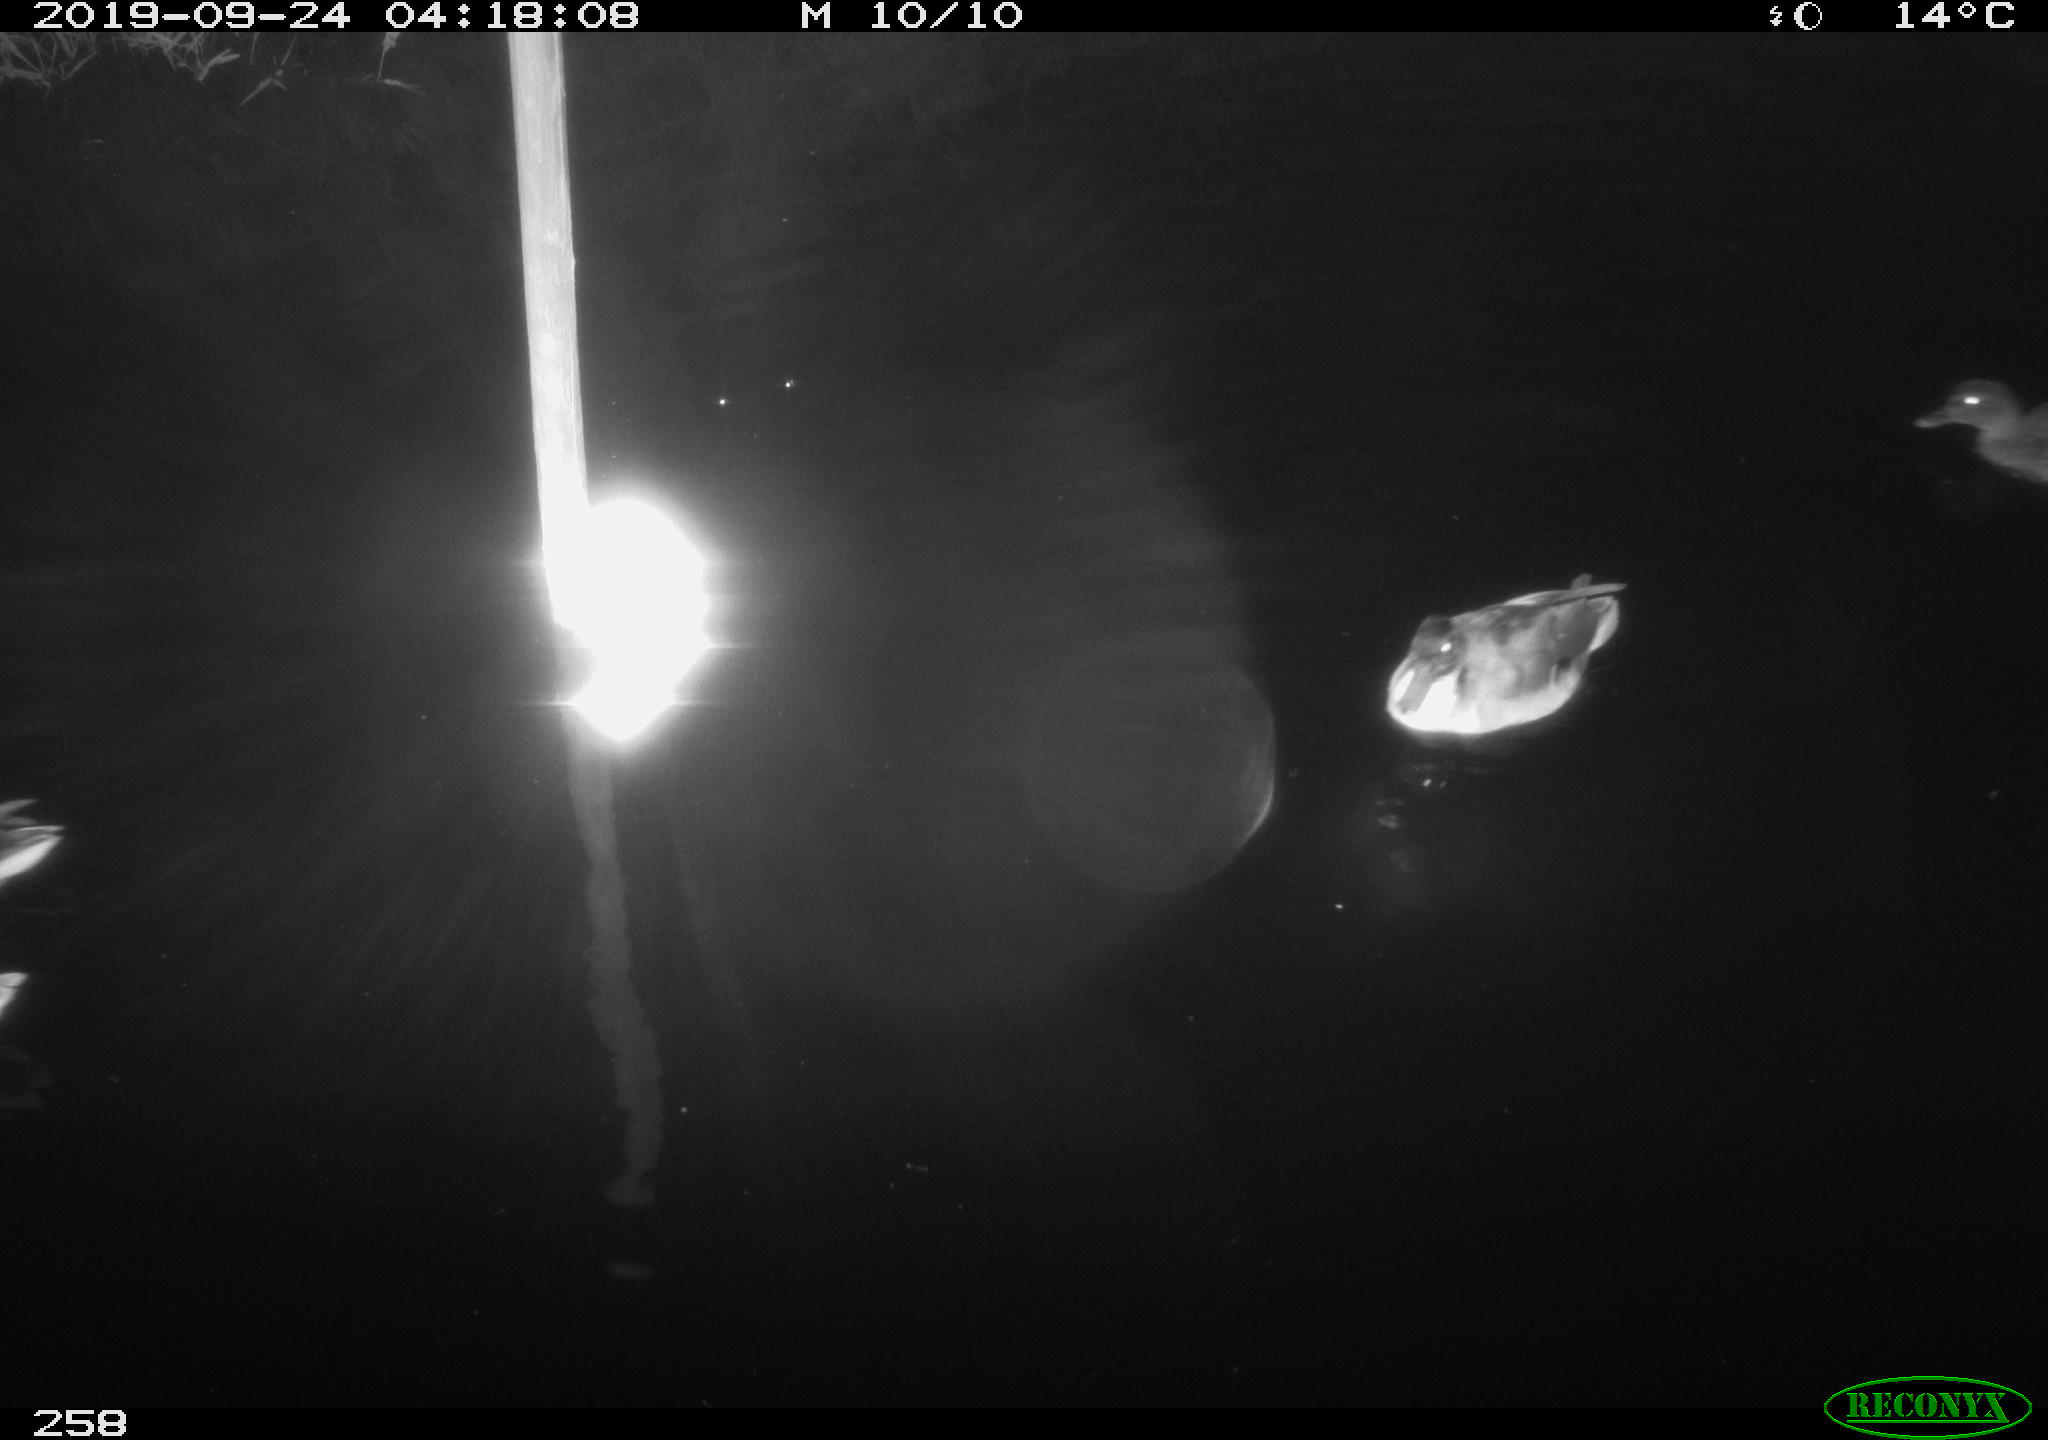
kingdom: Animalia
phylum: Chordata
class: Aves
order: Anseriformes
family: Anatidae
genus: Anas
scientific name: Anas platyrhynchos
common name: Mallard
